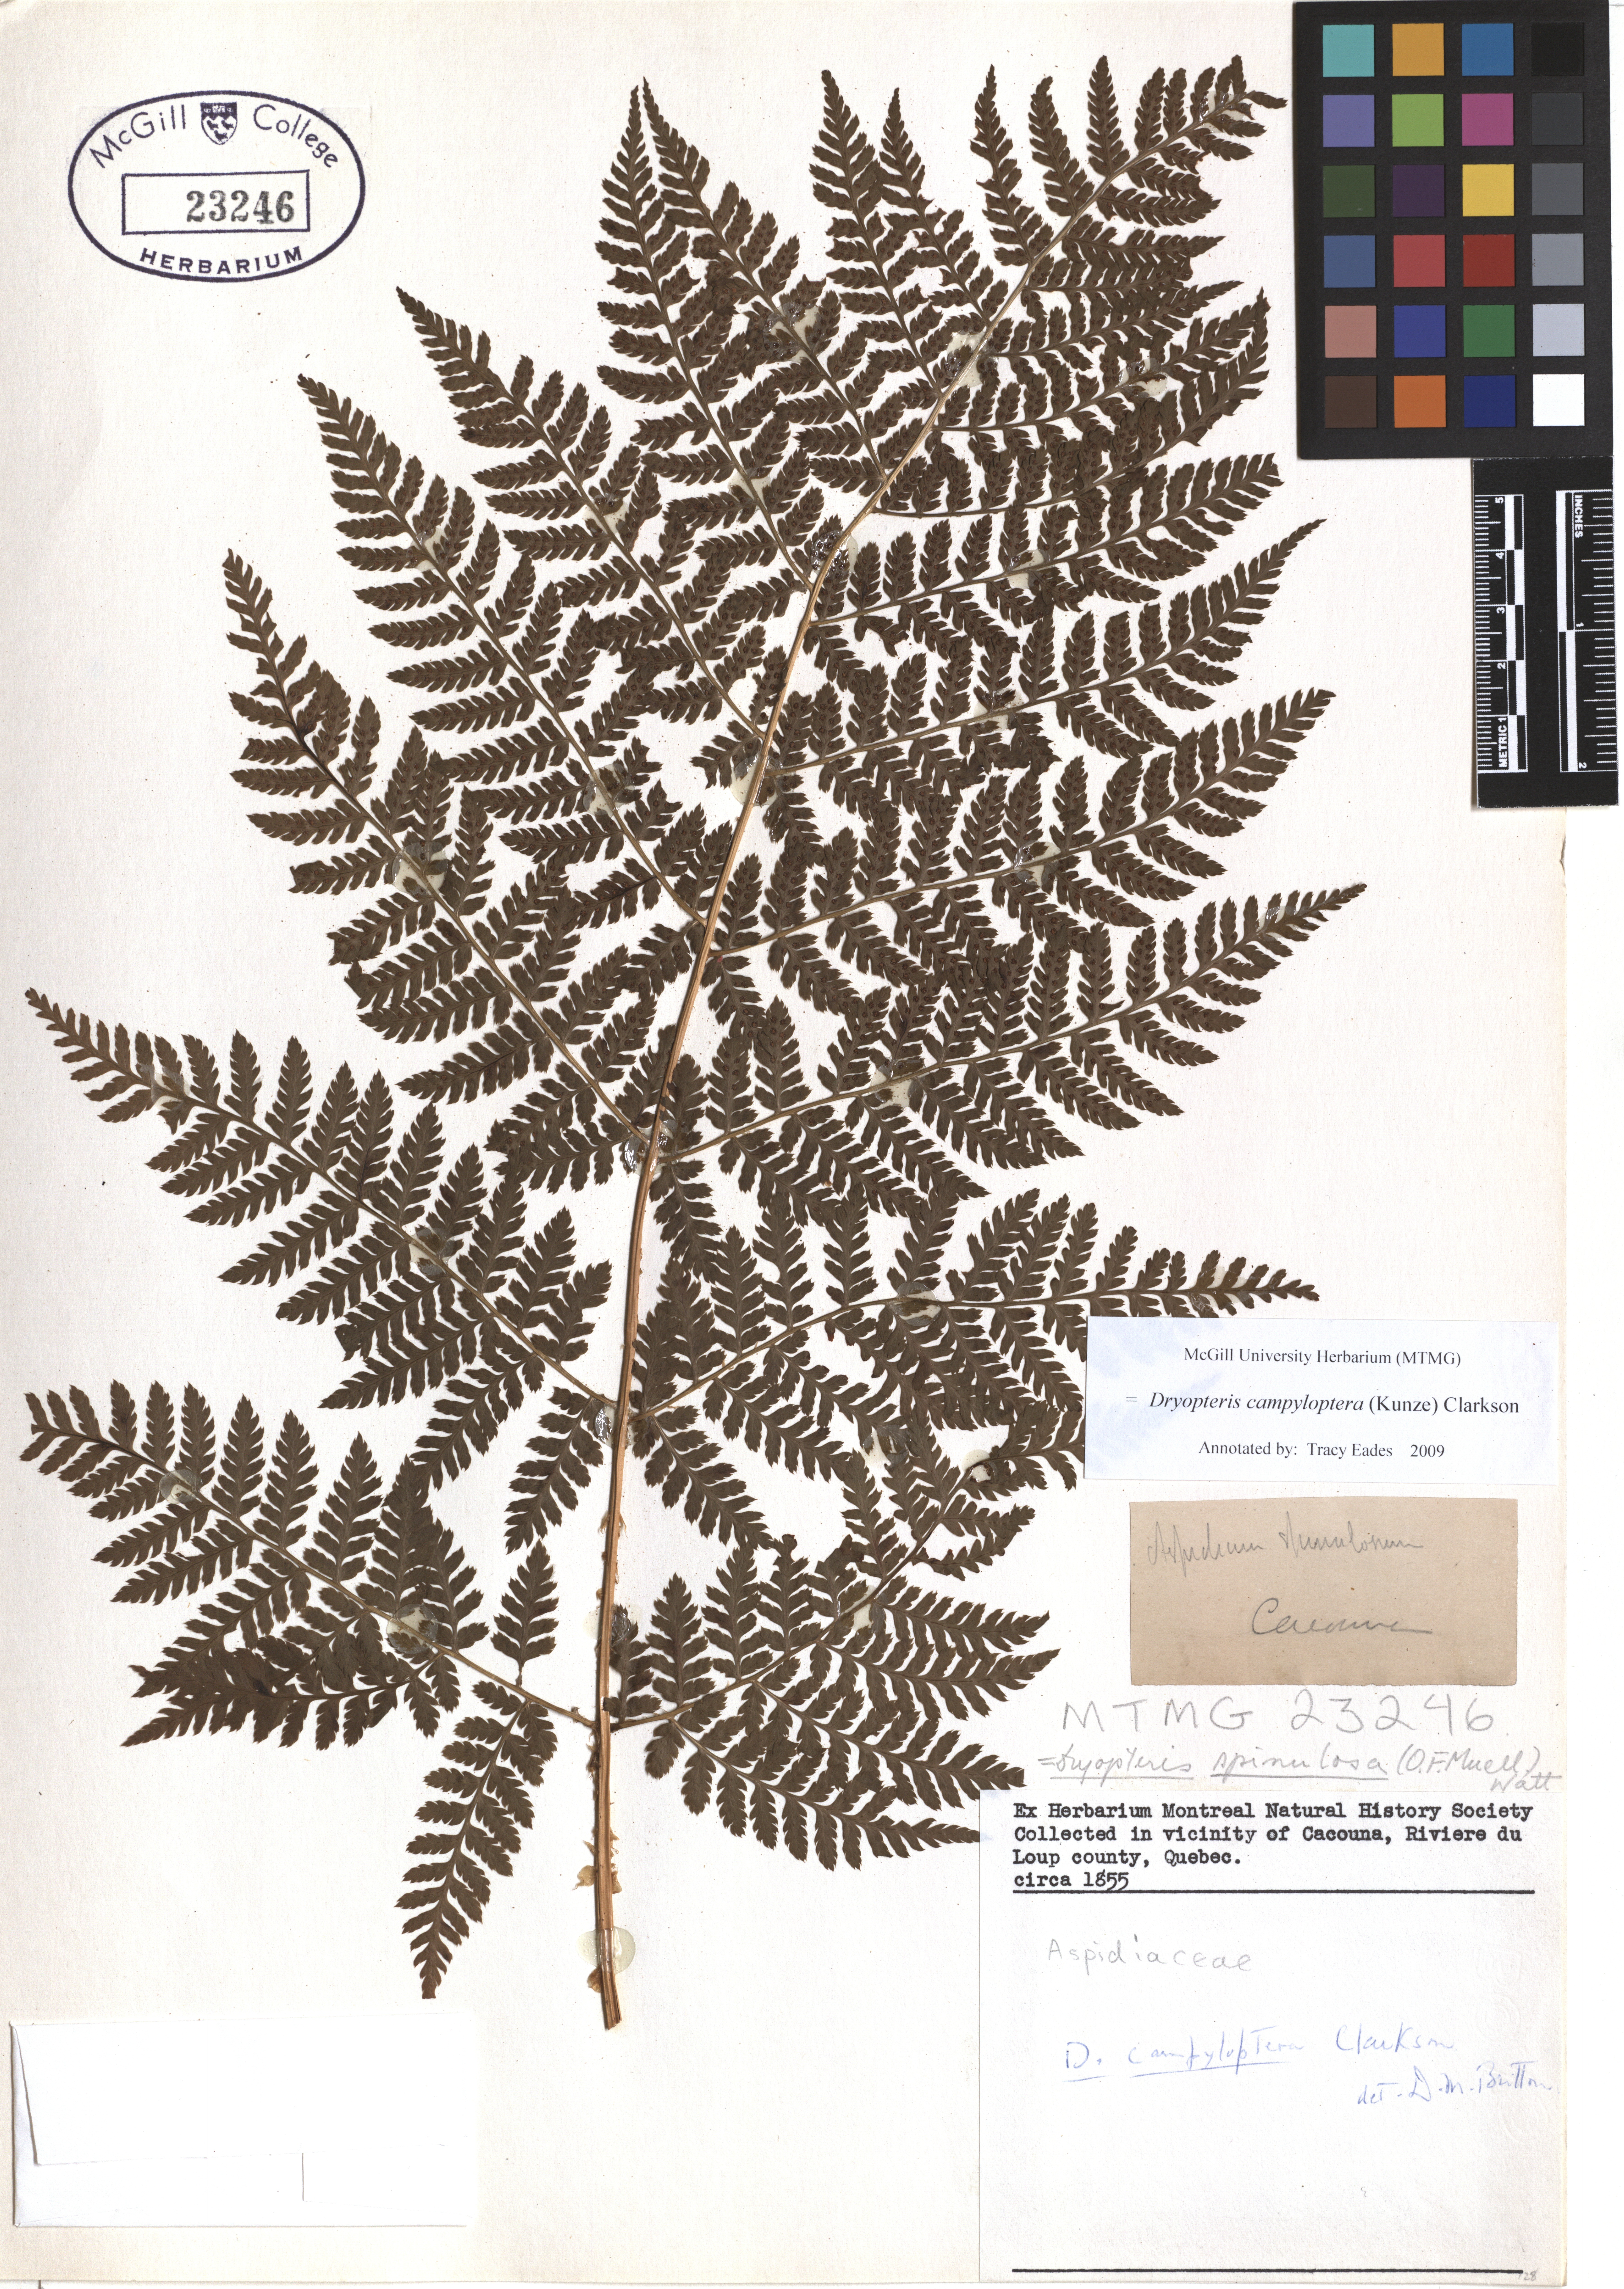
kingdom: Plantae
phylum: Tracheophyta
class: Polypodiopsida
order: Polypodiales
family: Dryopteridaceae
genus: Dryopteris
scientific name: Dryopteris campyloptera
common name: Mountain wood fern
